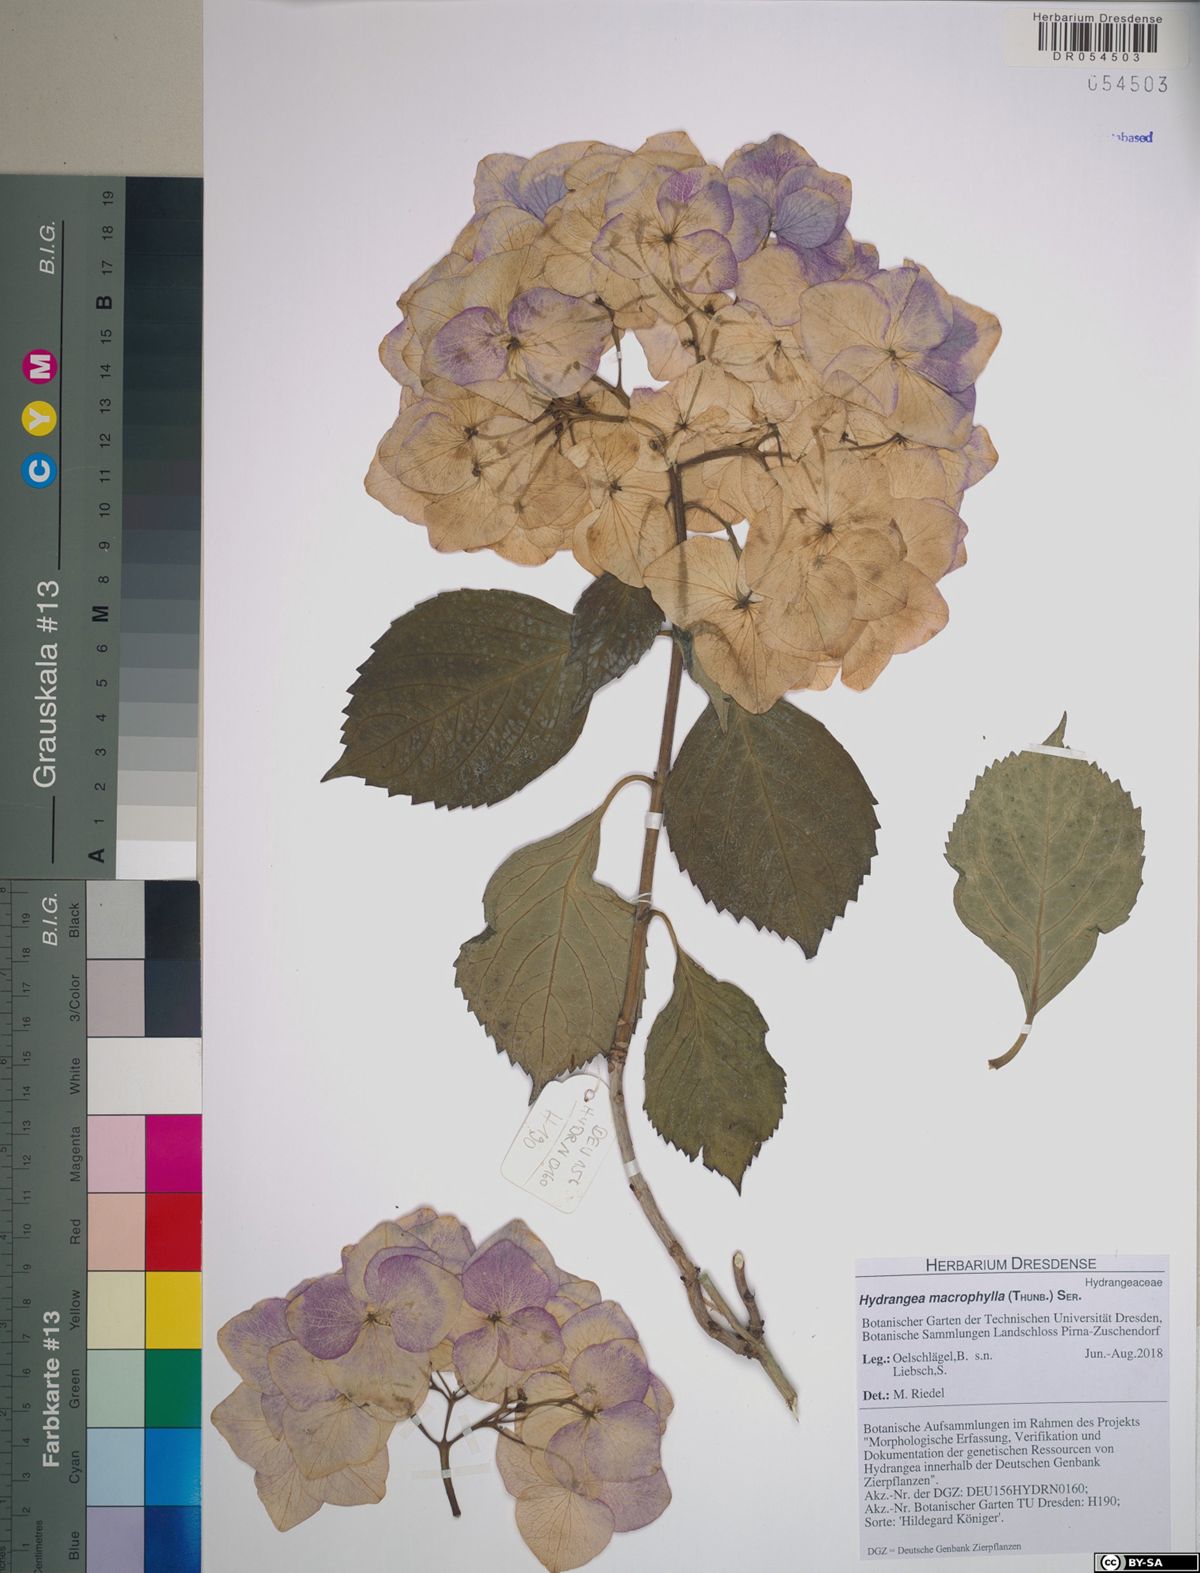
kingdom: Plantae
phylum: Tracheophyta
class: Magnoliopsida
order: Cornales
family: Hydrangeaceae
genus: Hydrangea
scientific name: Hydrangea macrophylla
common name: Hydrangea
